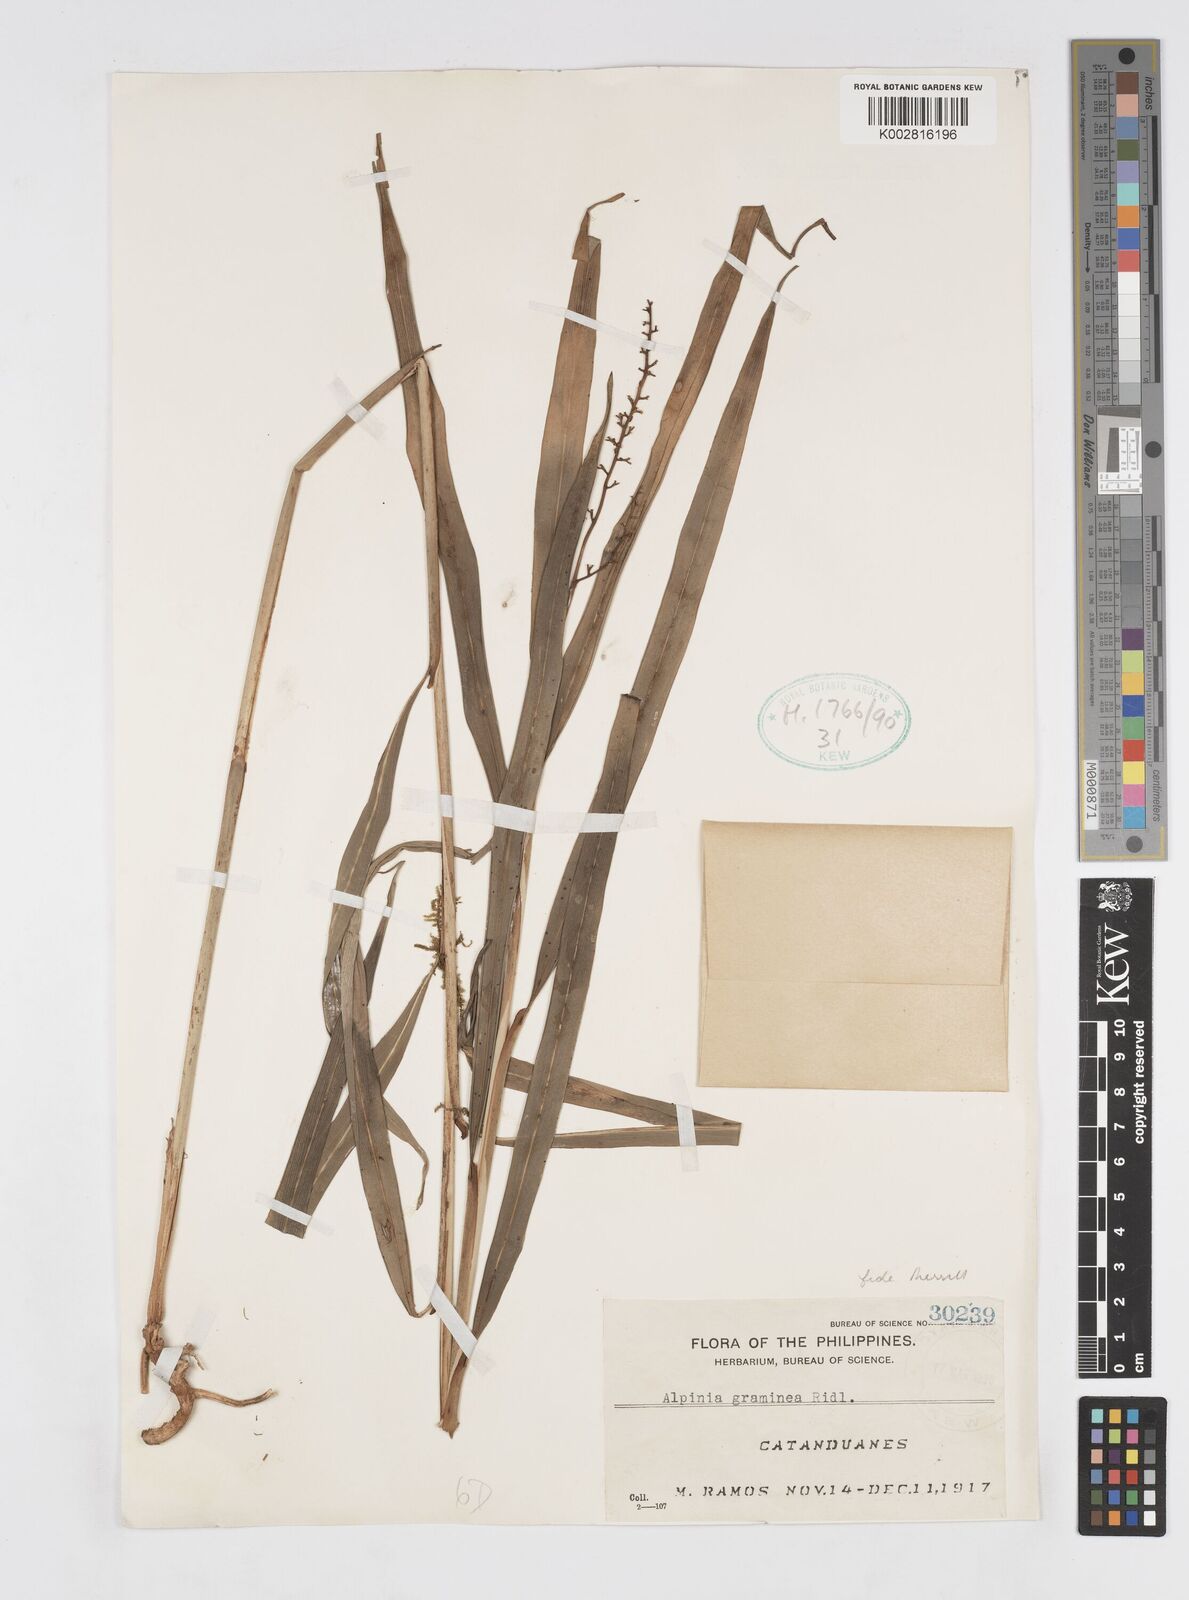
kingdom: Plantae
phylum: Tracheophyta
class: Liliopsida
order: Zingiberales
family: Zingiberaceae
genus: Alpinia
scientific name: Alpinia graminea
